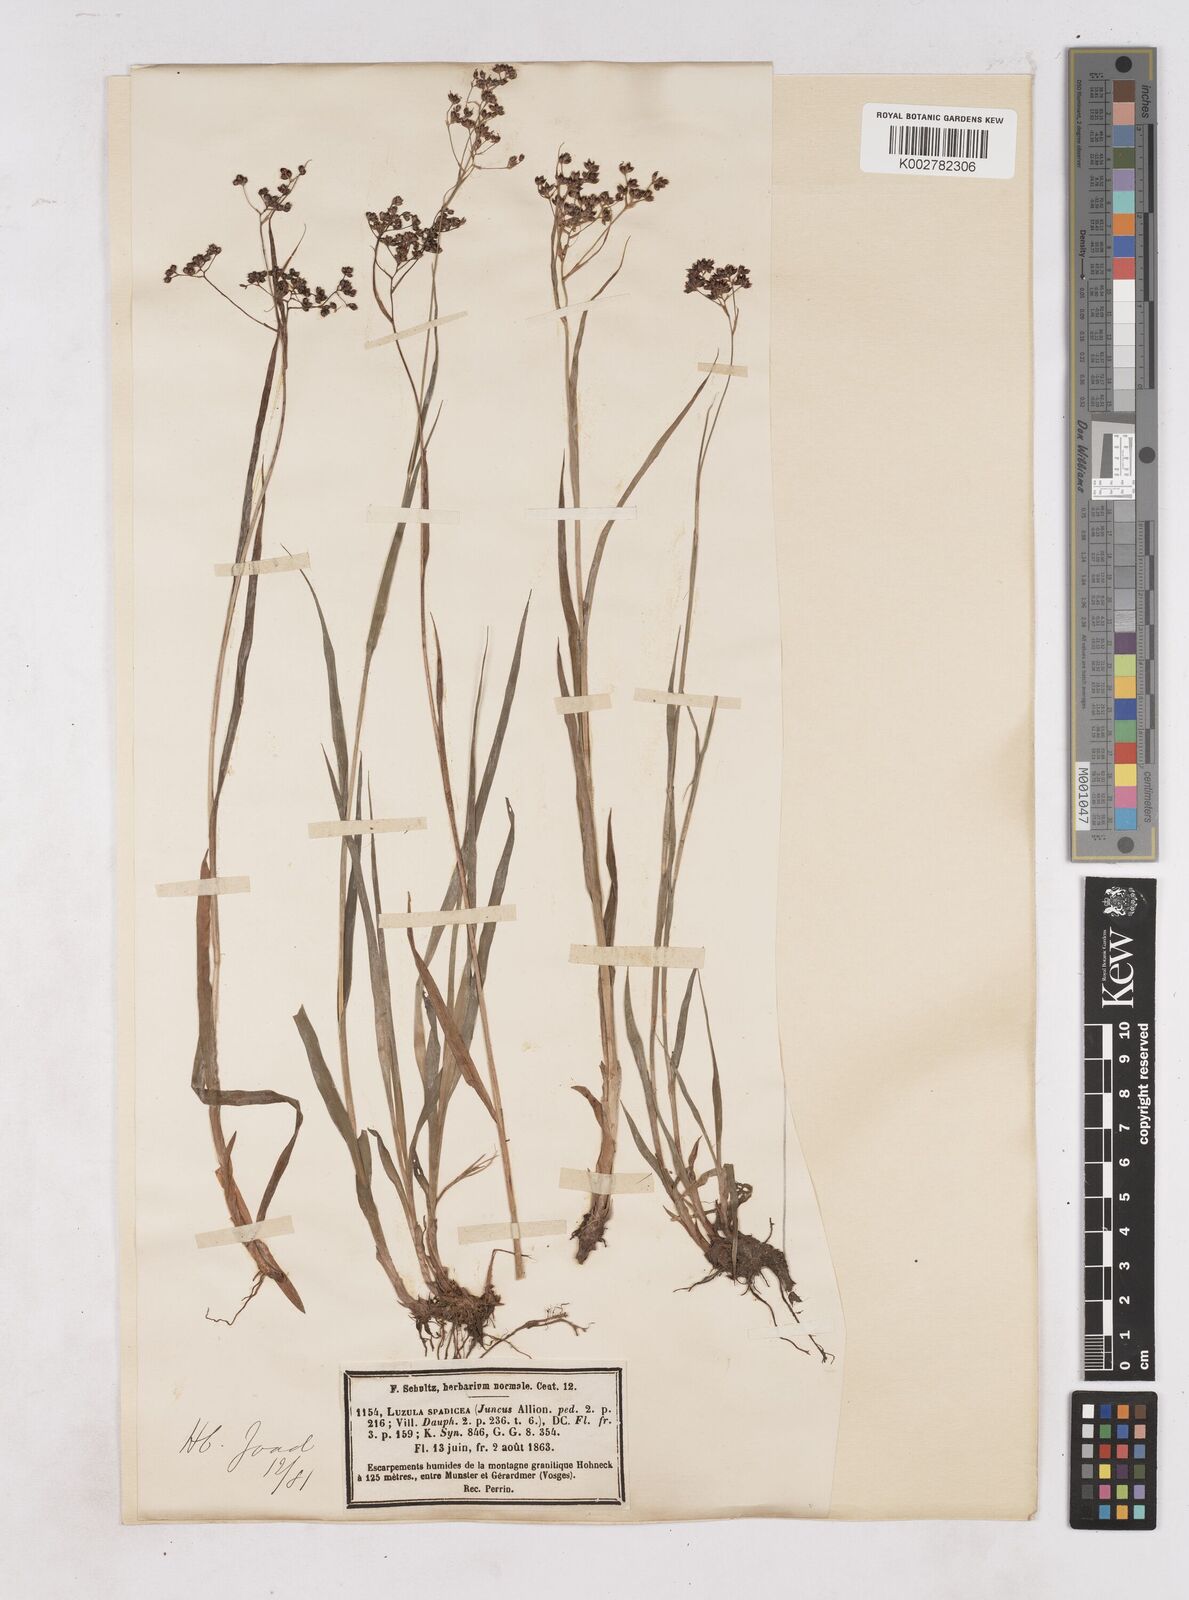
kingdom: Plantae
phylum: Tracheophyta
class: Liliopsida
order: Poales
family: Juncaceae
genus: Luzula
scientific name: Luzula alpinopilosa
